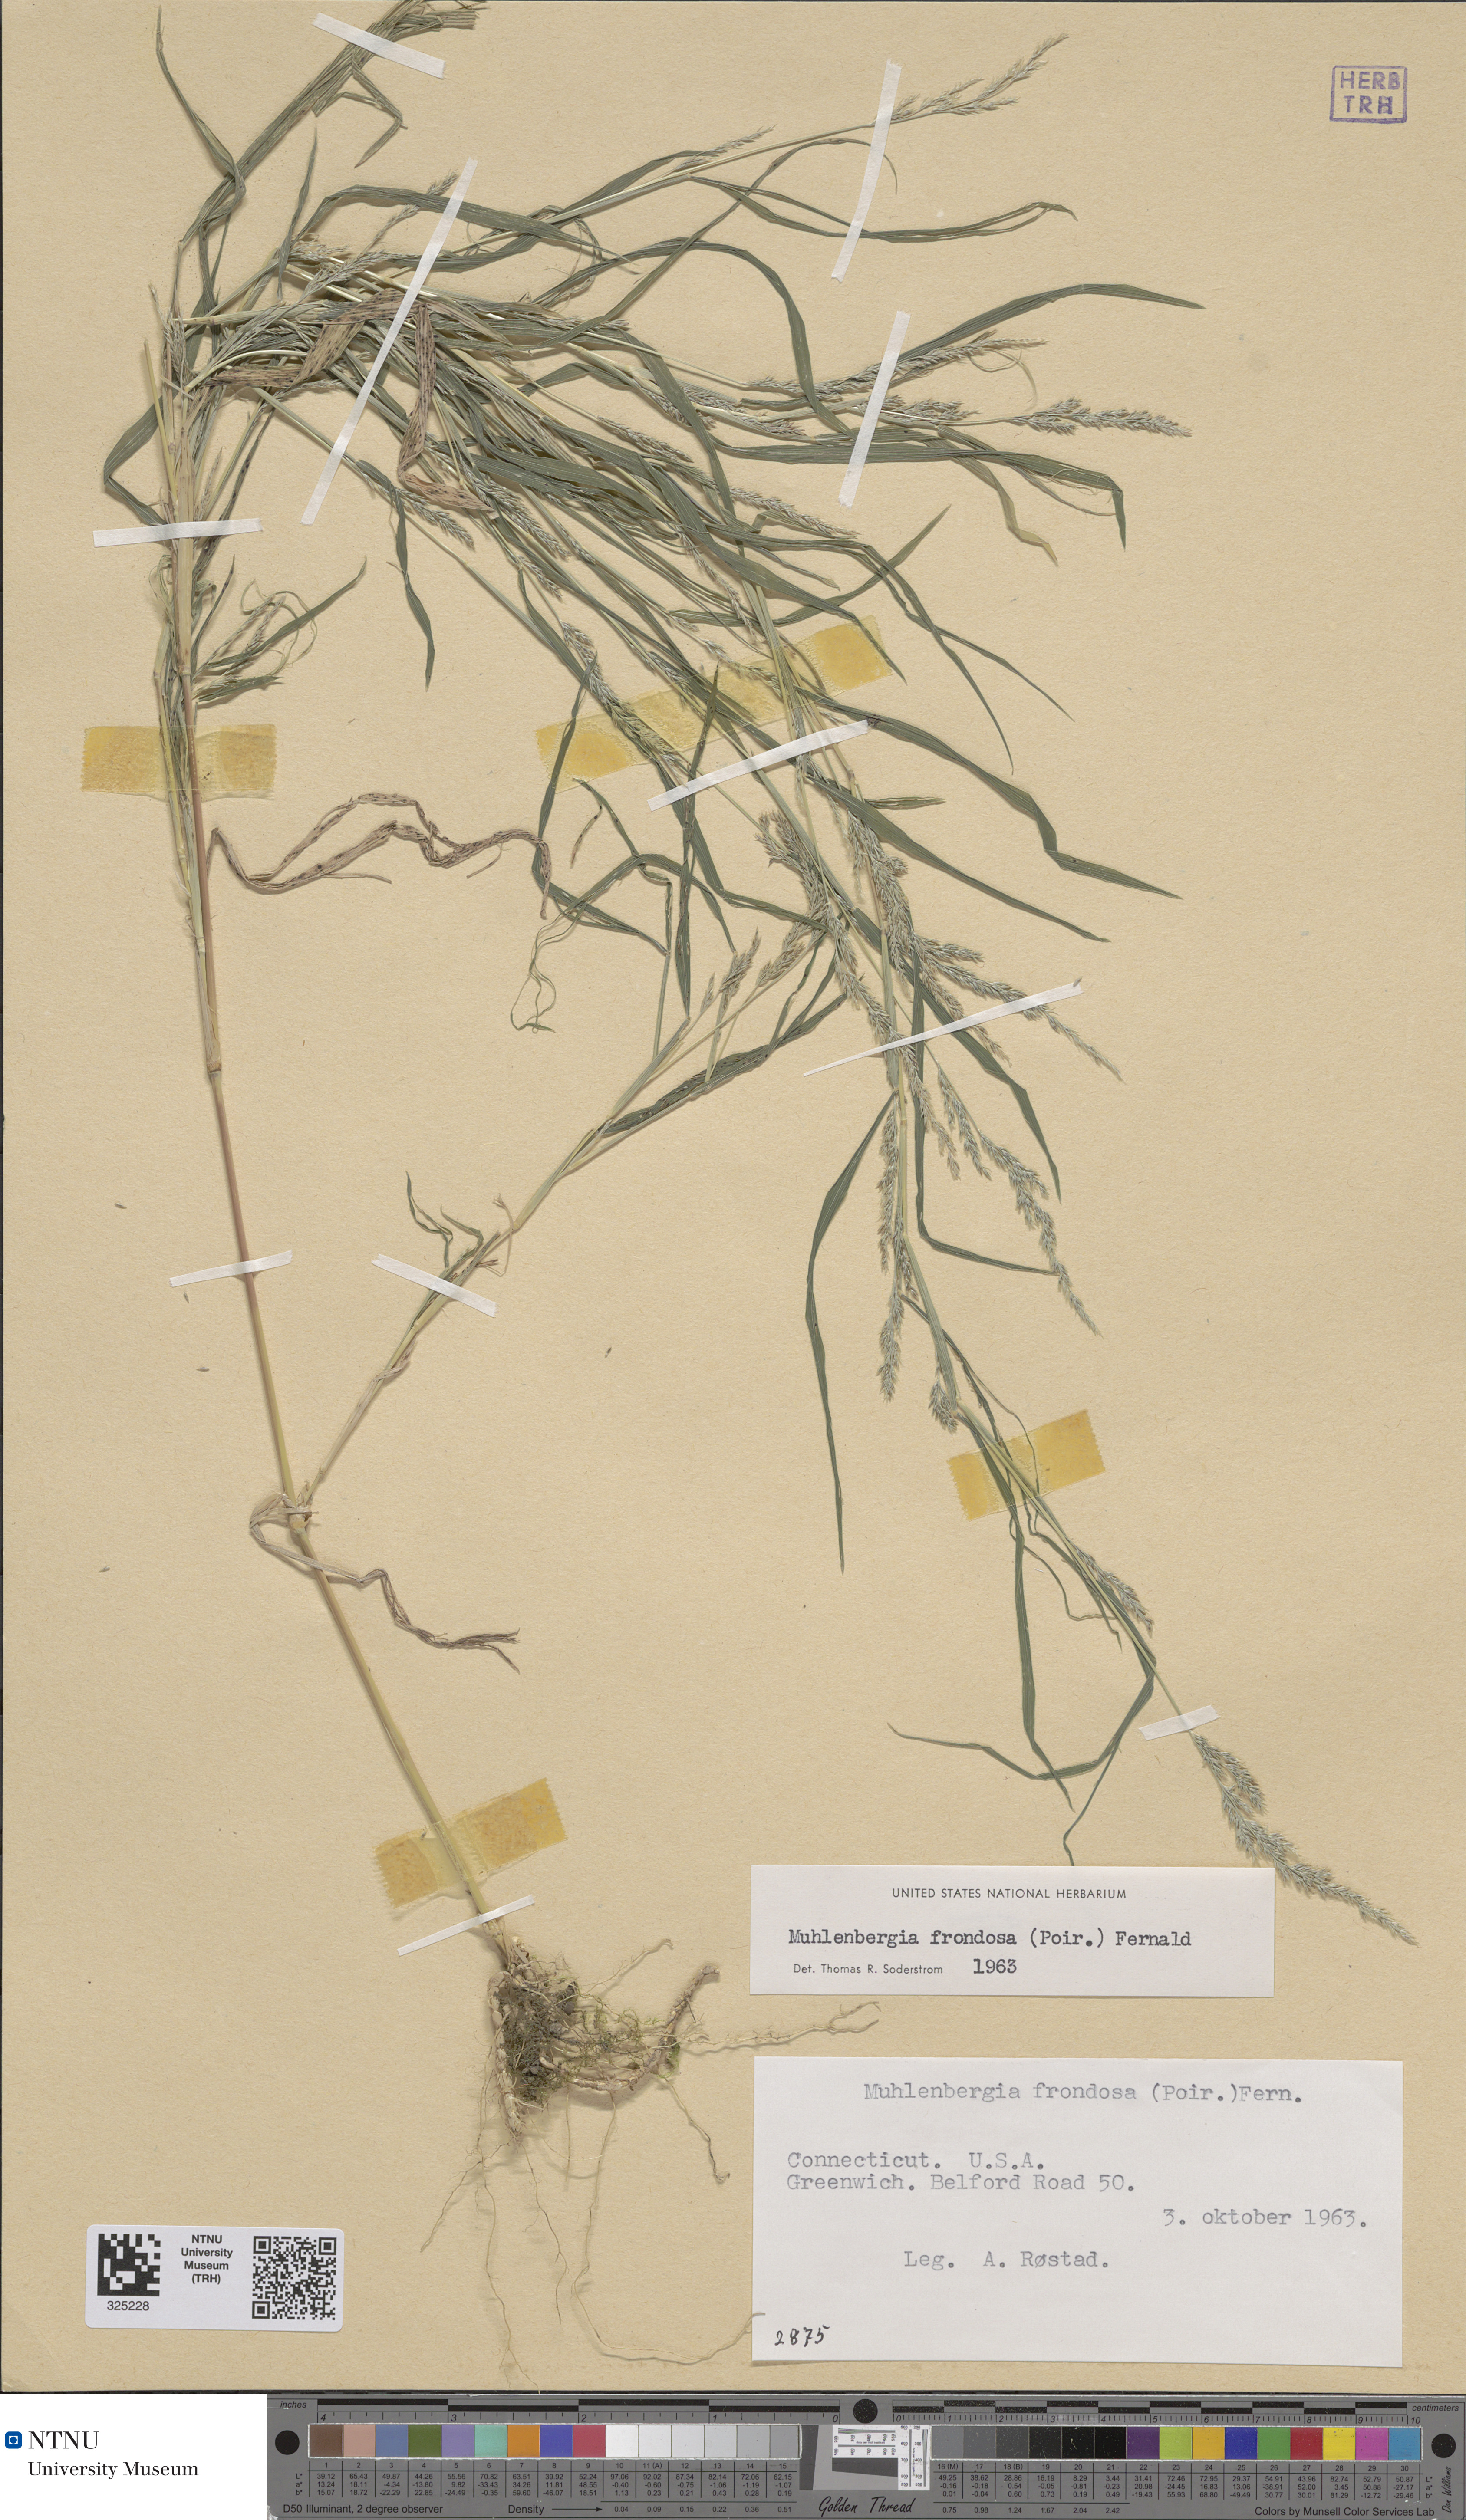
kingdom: Plantae
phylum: Tracheophyta
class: Liliopsida
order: Poales
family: Poaceae
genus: Muhlenbergia
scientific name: Muhlenbergia frondosa
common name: Common satingrass
